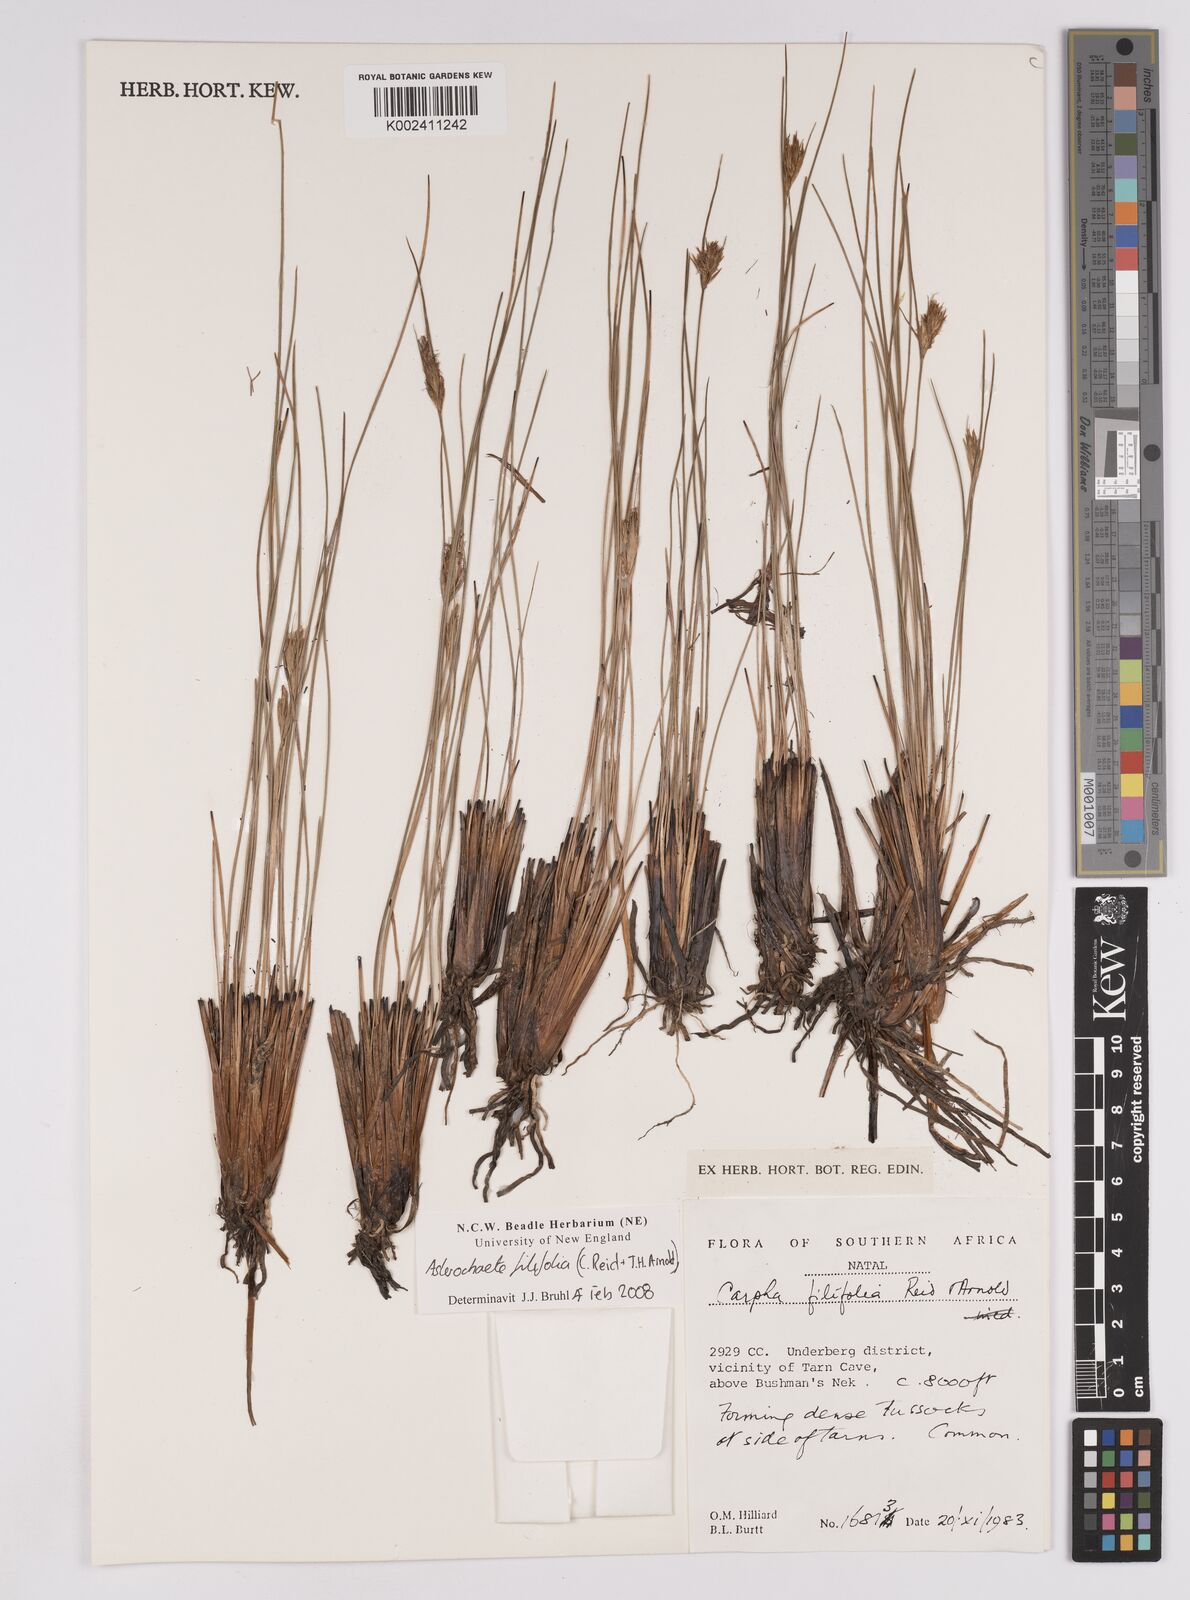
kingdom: Plantae
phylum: Tracheophyta
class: Liliopsida
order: Poales
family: Cyperaceae
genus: Carpha
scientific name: Carpha filifolia
